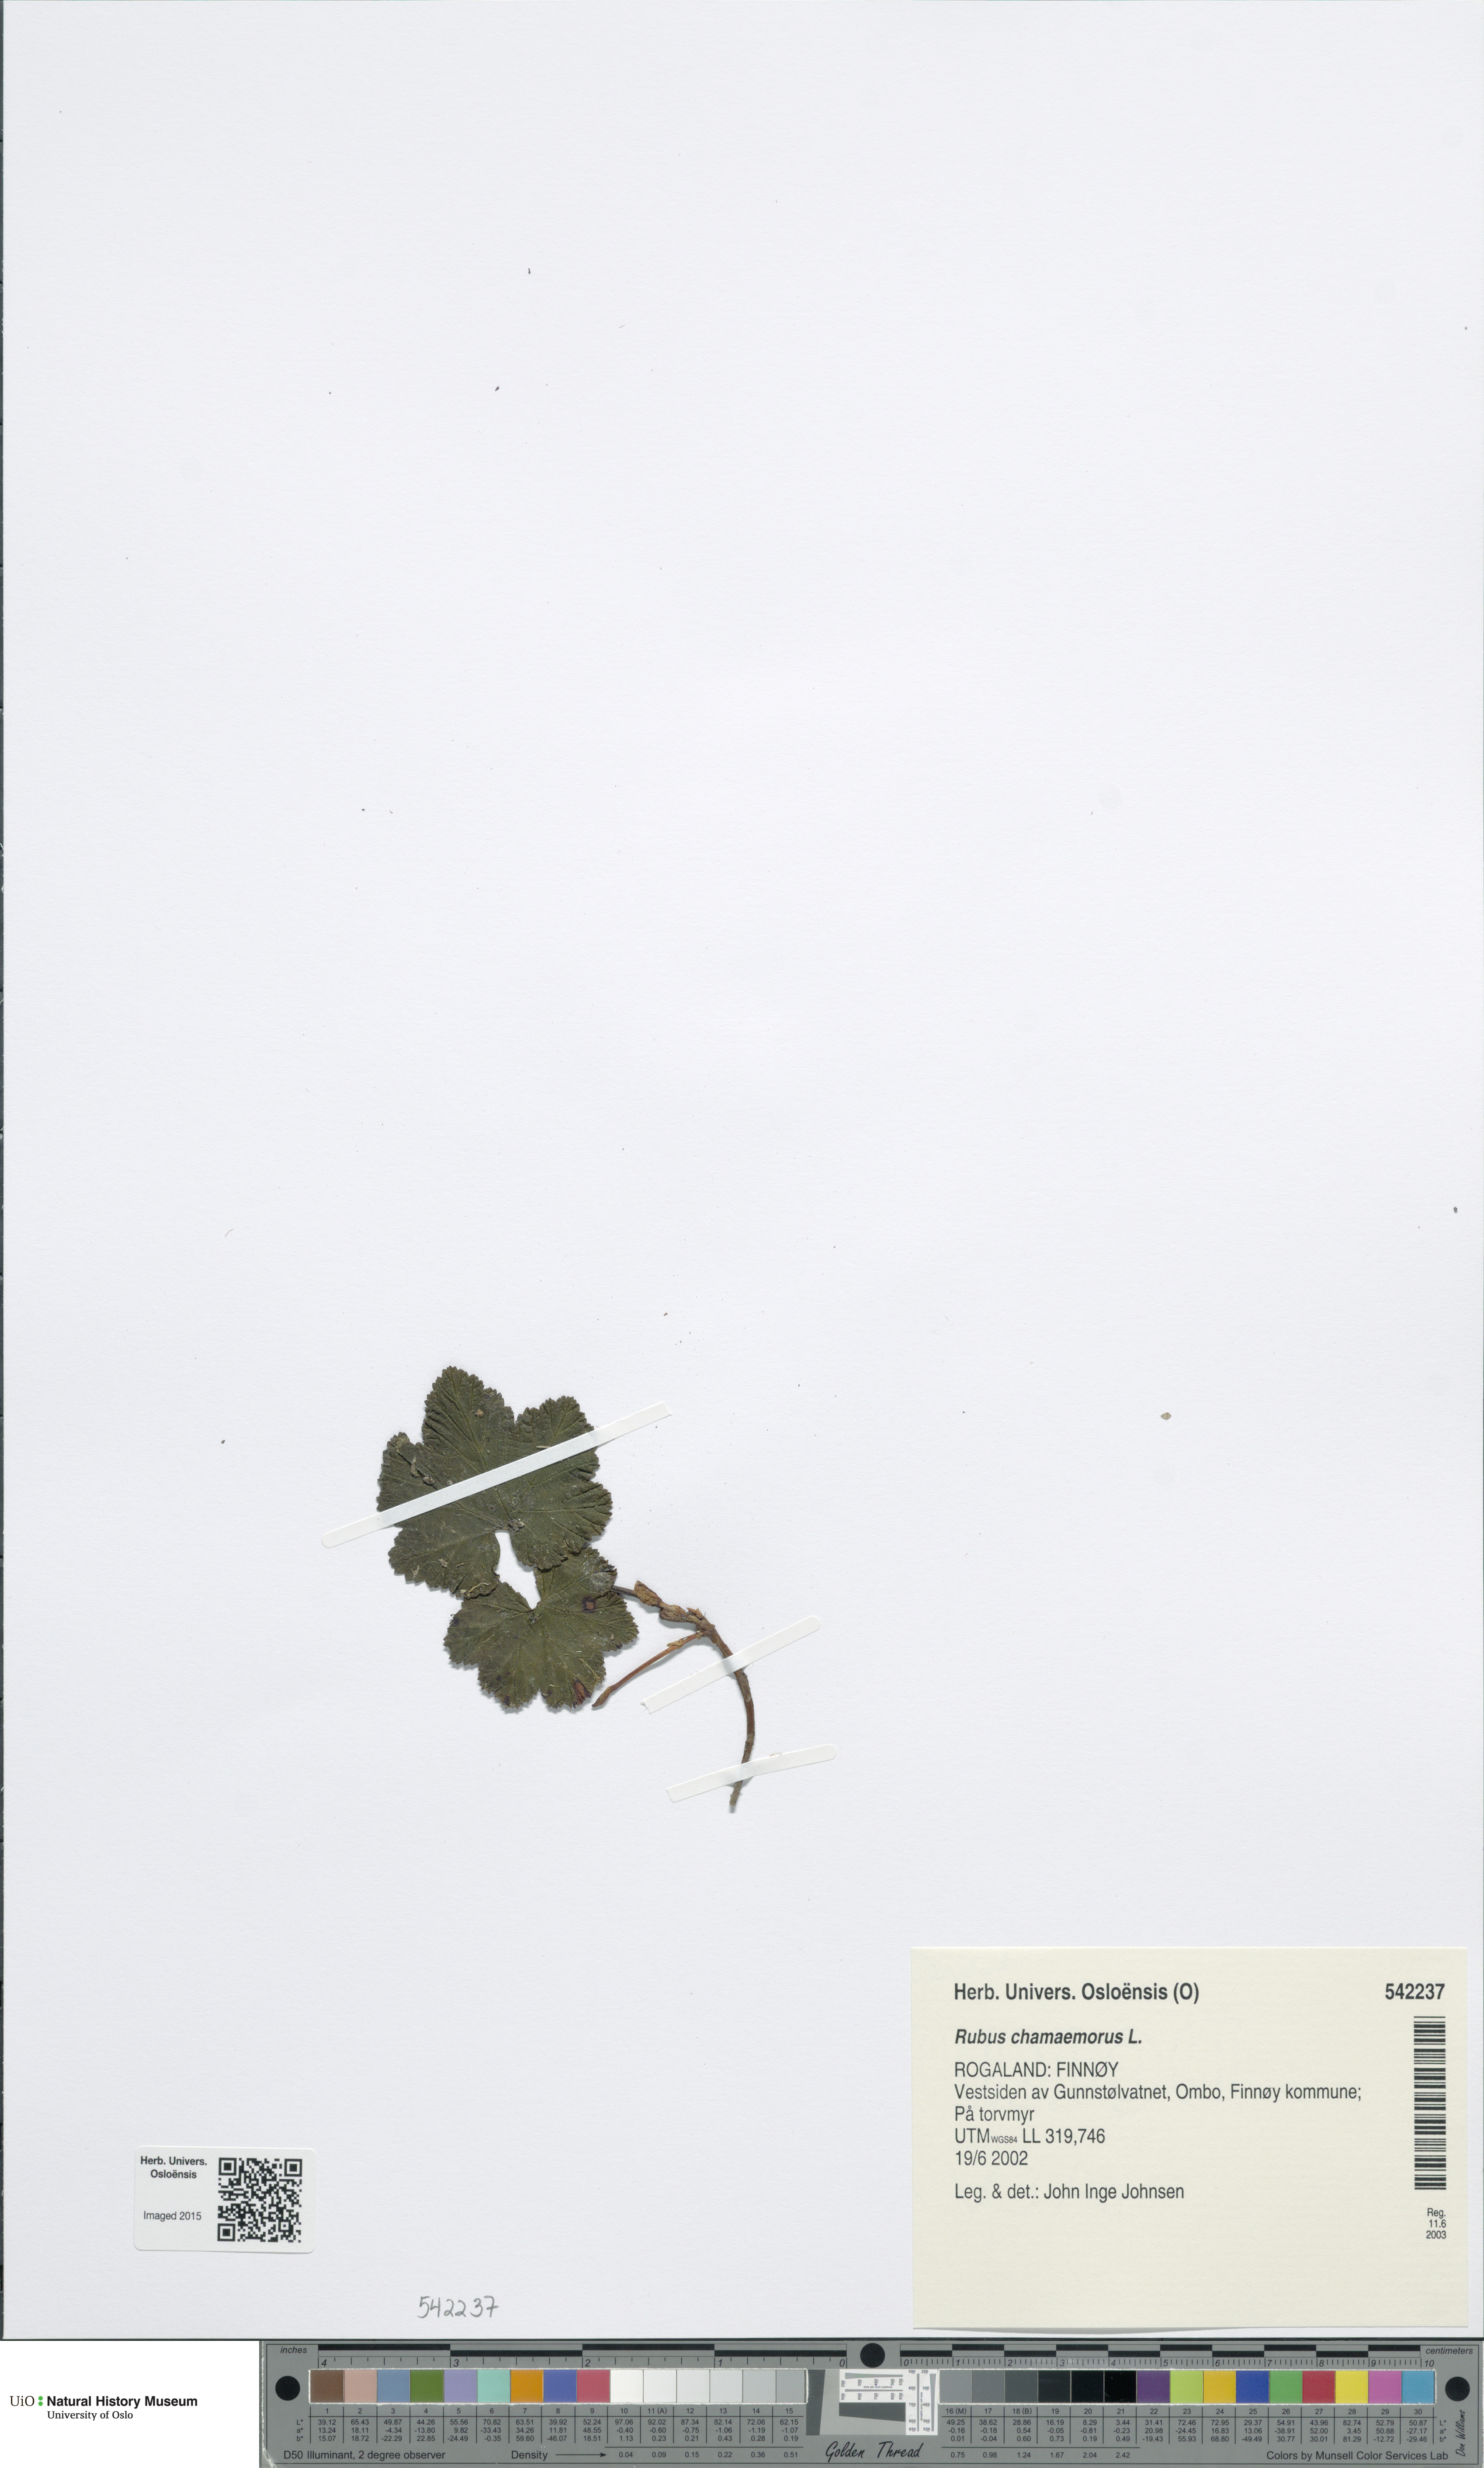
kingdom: Plantae
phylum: Tracheophyta
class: Magnoliopsida
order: Rosales
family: Rosaceae
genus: Rubus
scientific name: Rubus chamaemorus
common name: Cloudberry
